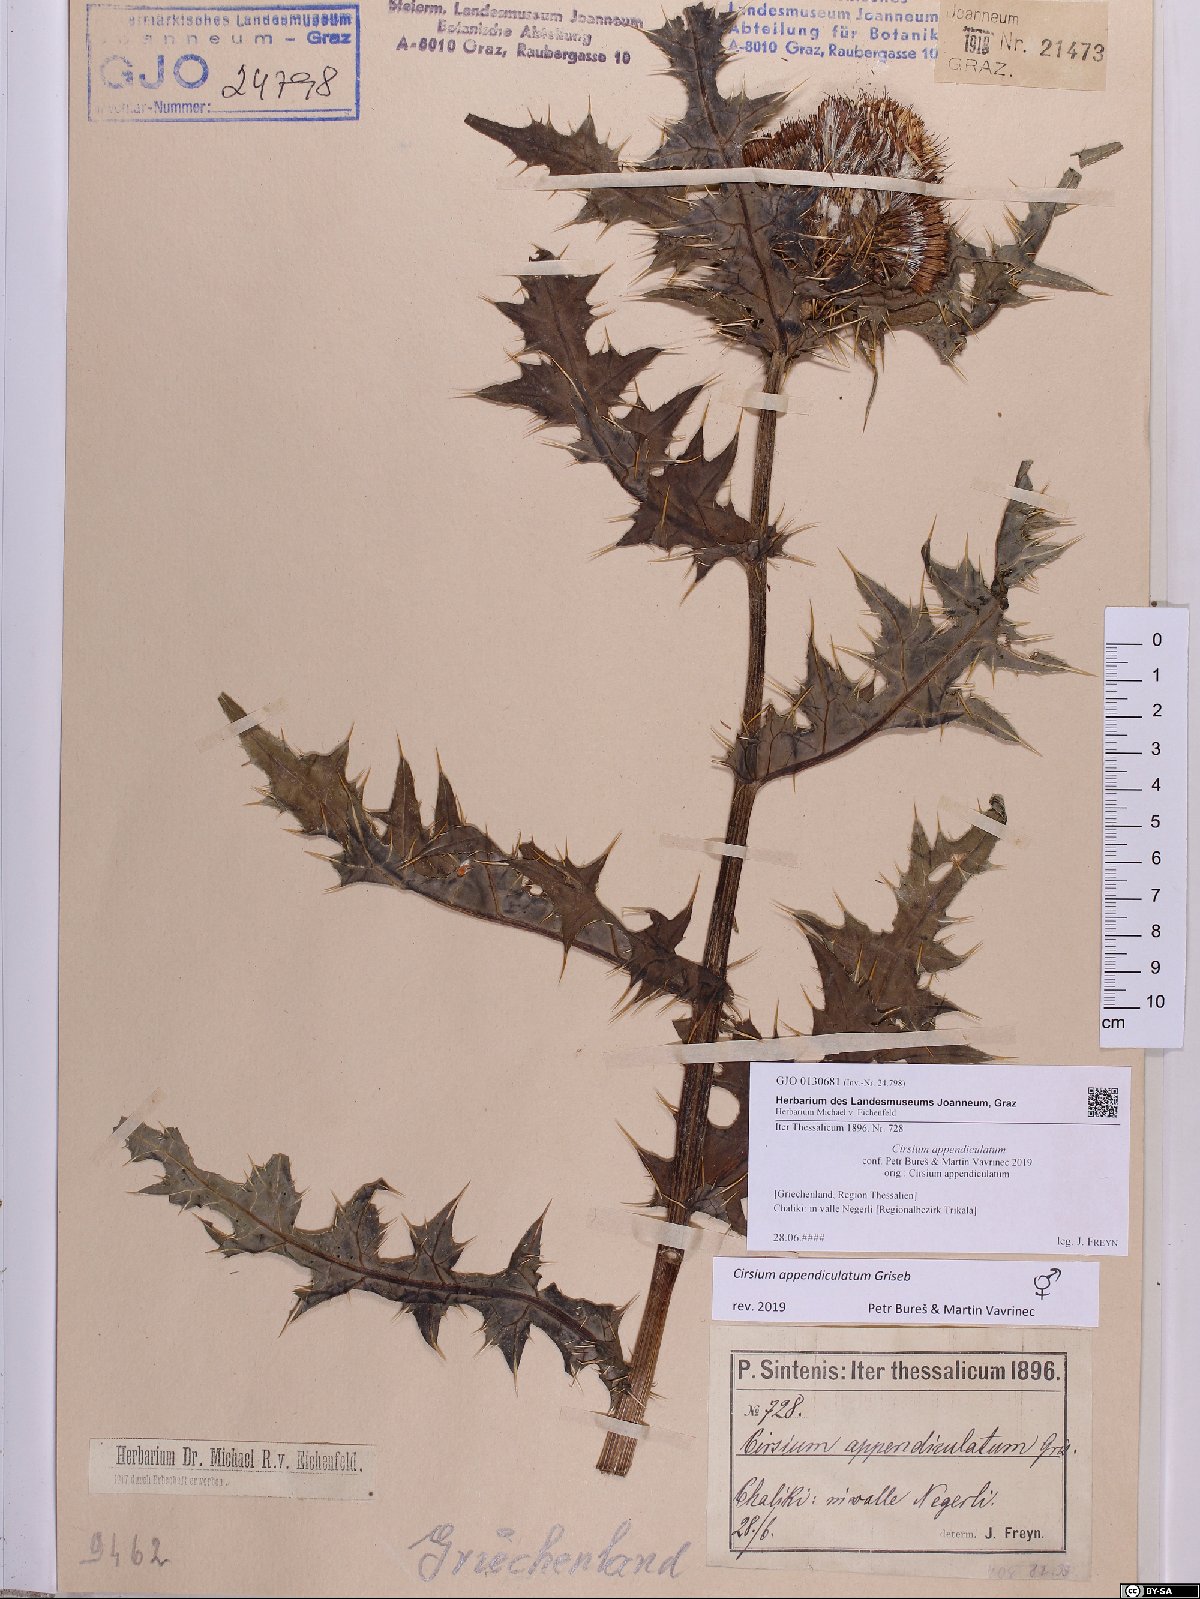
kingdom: Plantae
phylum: Tracheophyta
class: Magnoliopsida
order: Asterales
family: Asteraceae
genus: Cirsium
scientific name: Cirsium appendiculatum
